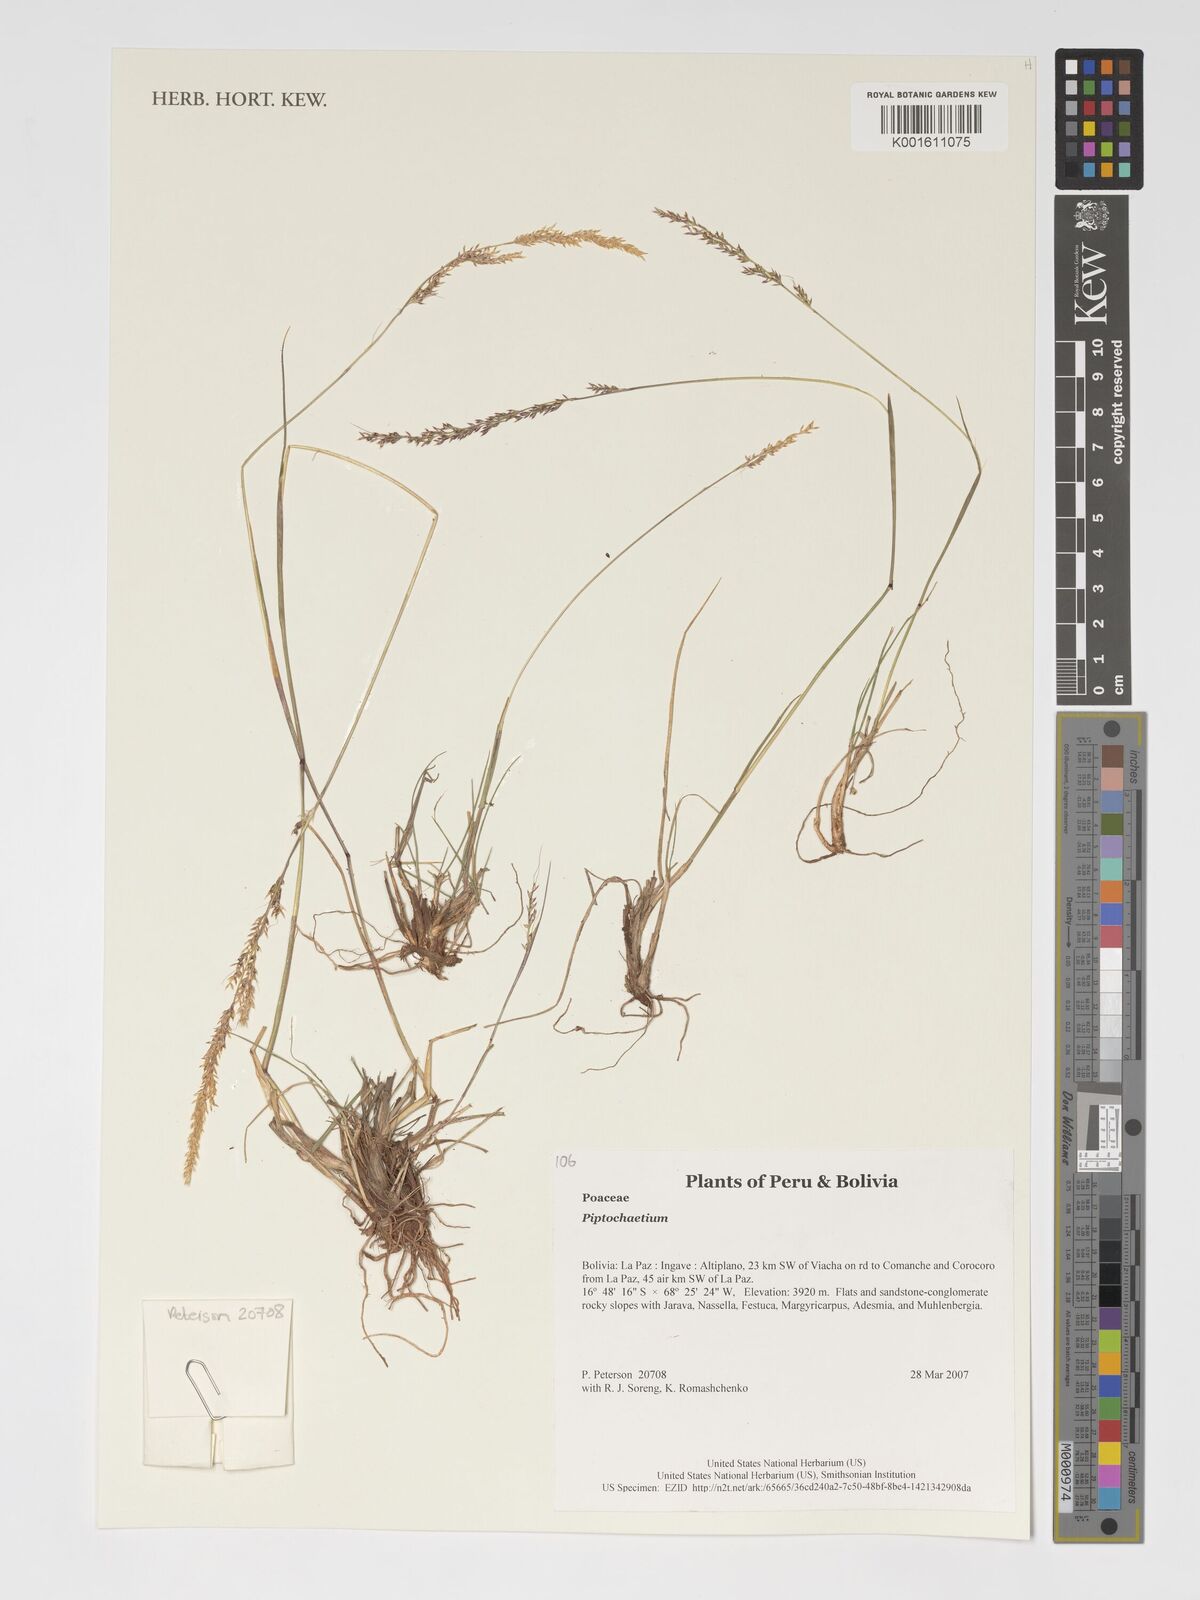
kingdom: Plantae
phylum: Tracheophyta
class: Liliopsida
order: Poales
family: Poaceae
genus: Piptochaetium
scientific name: Piptochaetium
